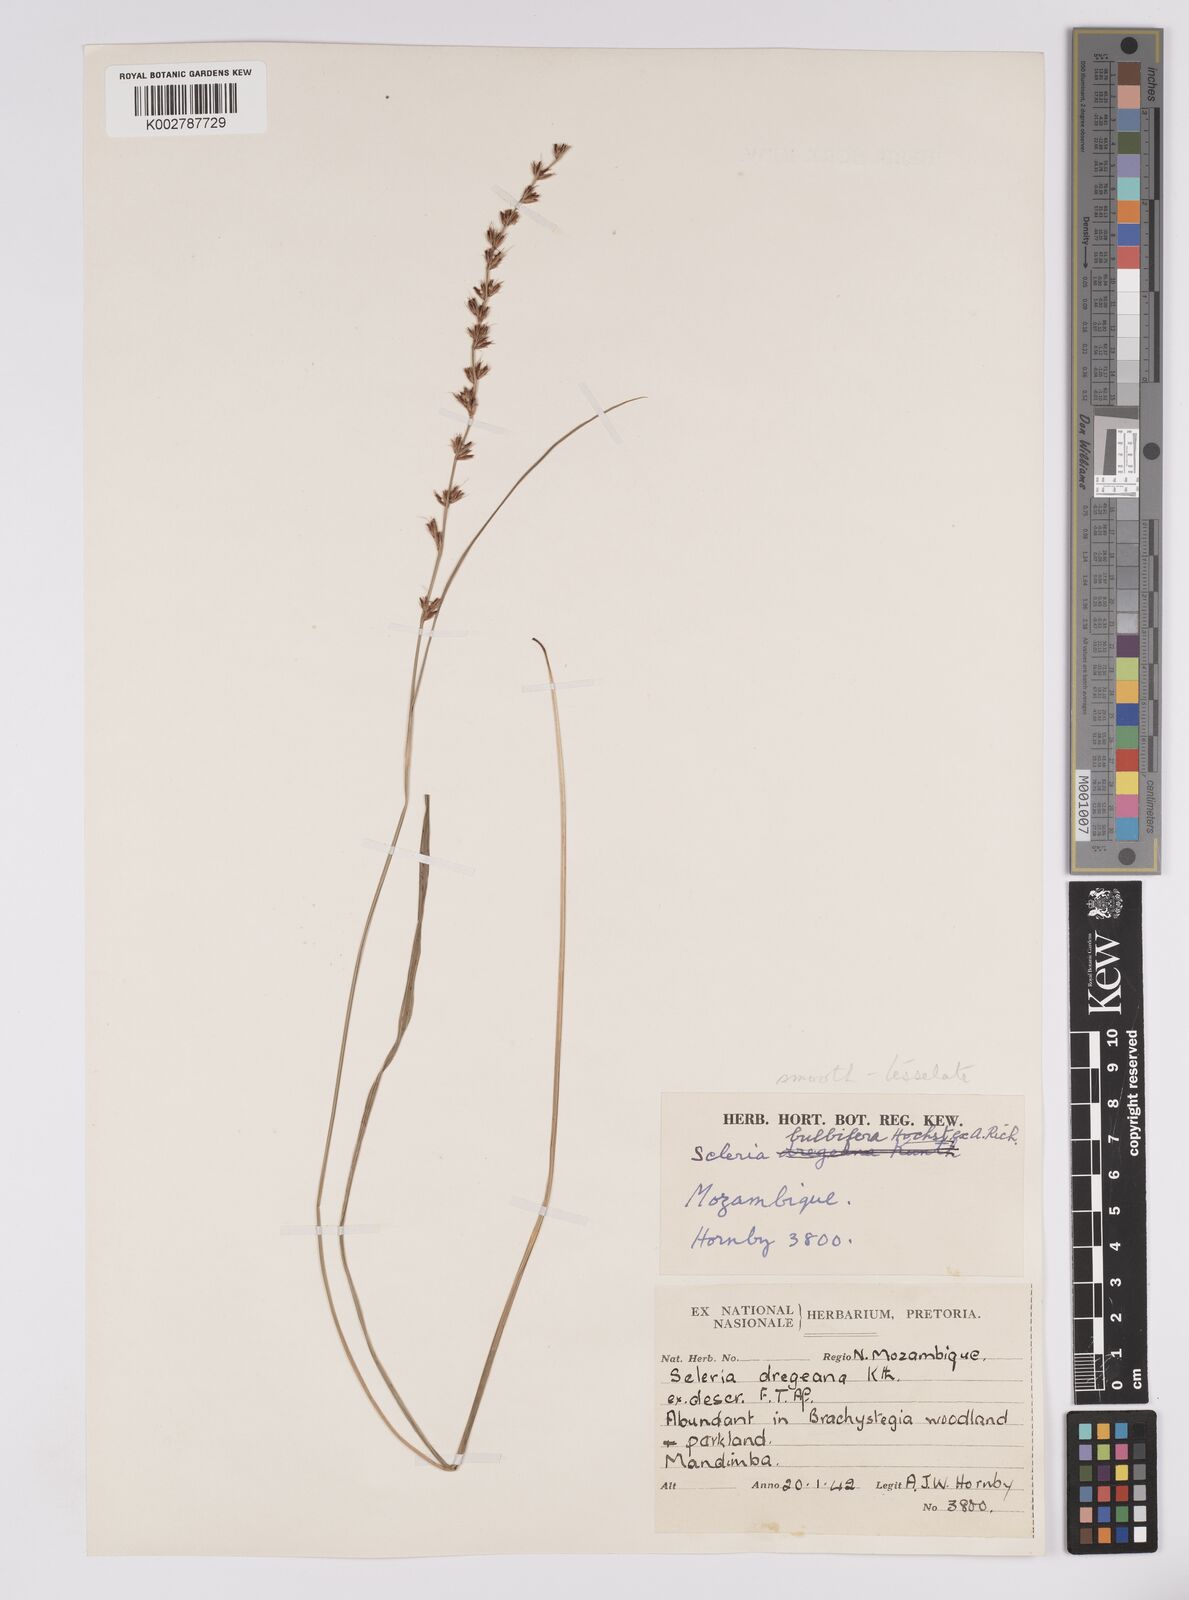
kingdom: Plantae
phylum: Tracheophyta
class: Liliopsida
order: Poales
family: Cyperaceae
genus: Scleria
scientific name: Scleria bulbifera
